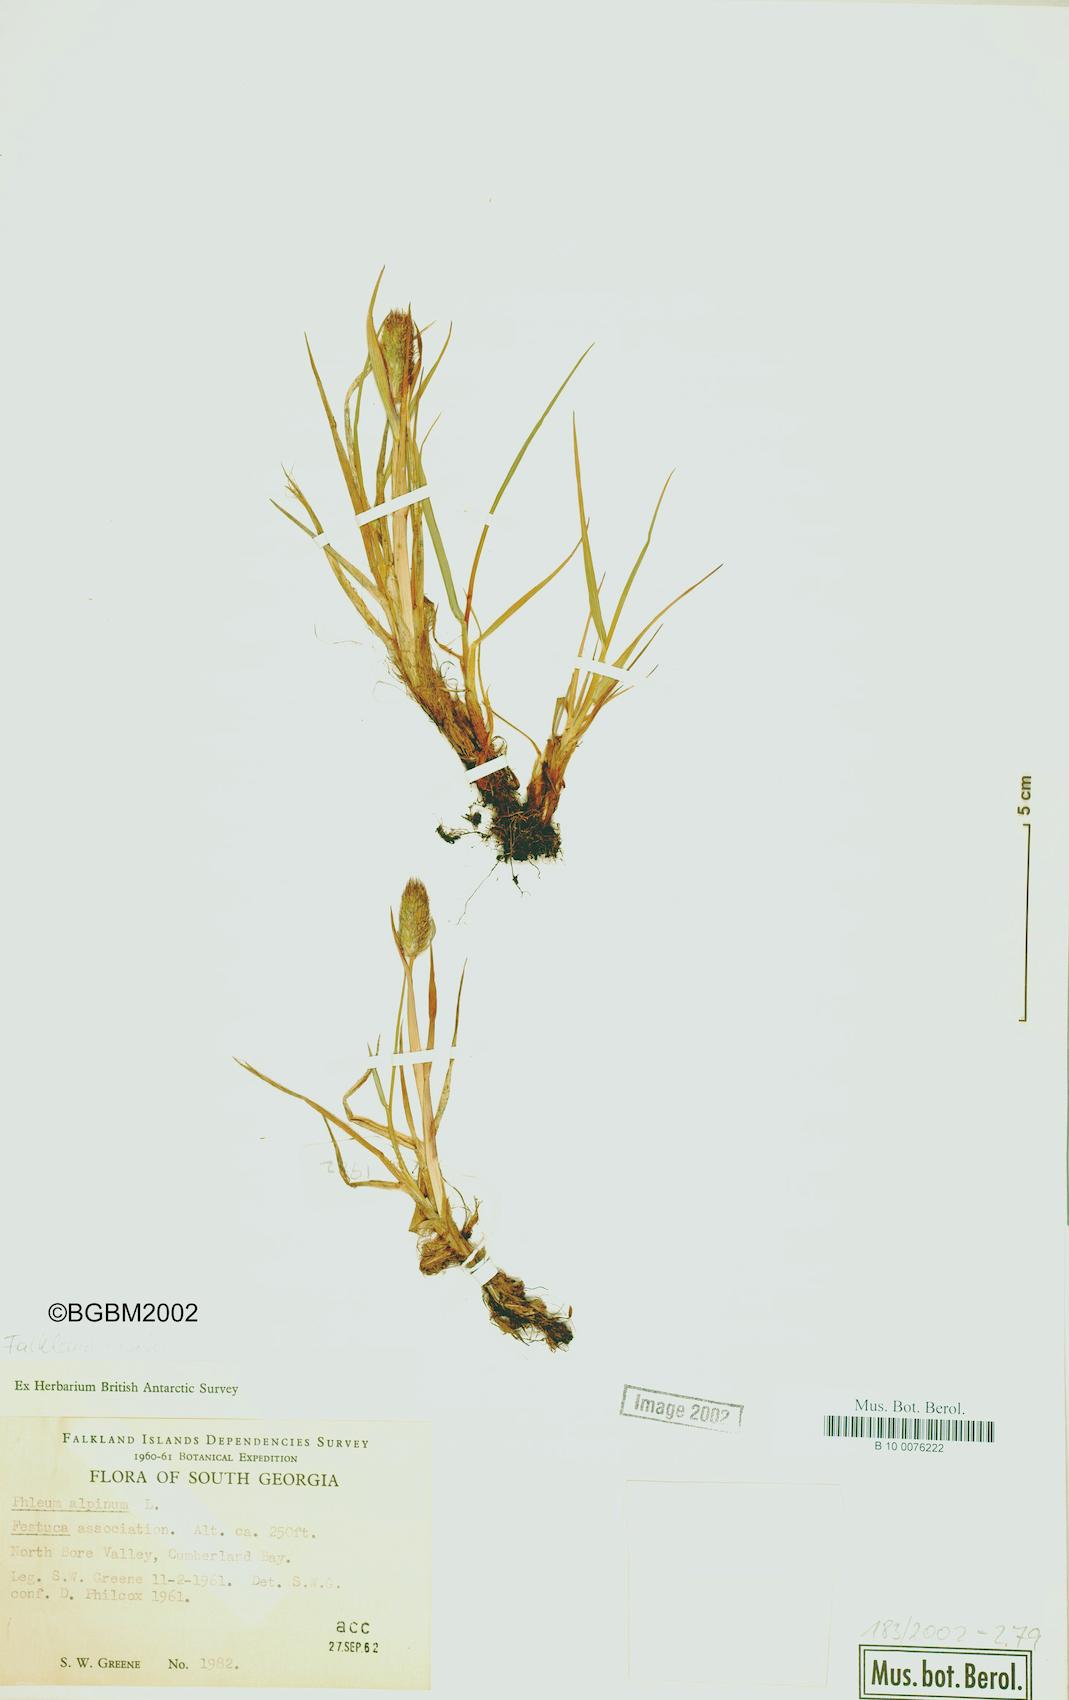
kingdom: Plantae
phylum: Tracheophyta
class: Liliopsida
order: Poales
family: Poaceae
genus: Phleum
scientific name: Phleum alpinum
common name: Alpine cat's-tail
